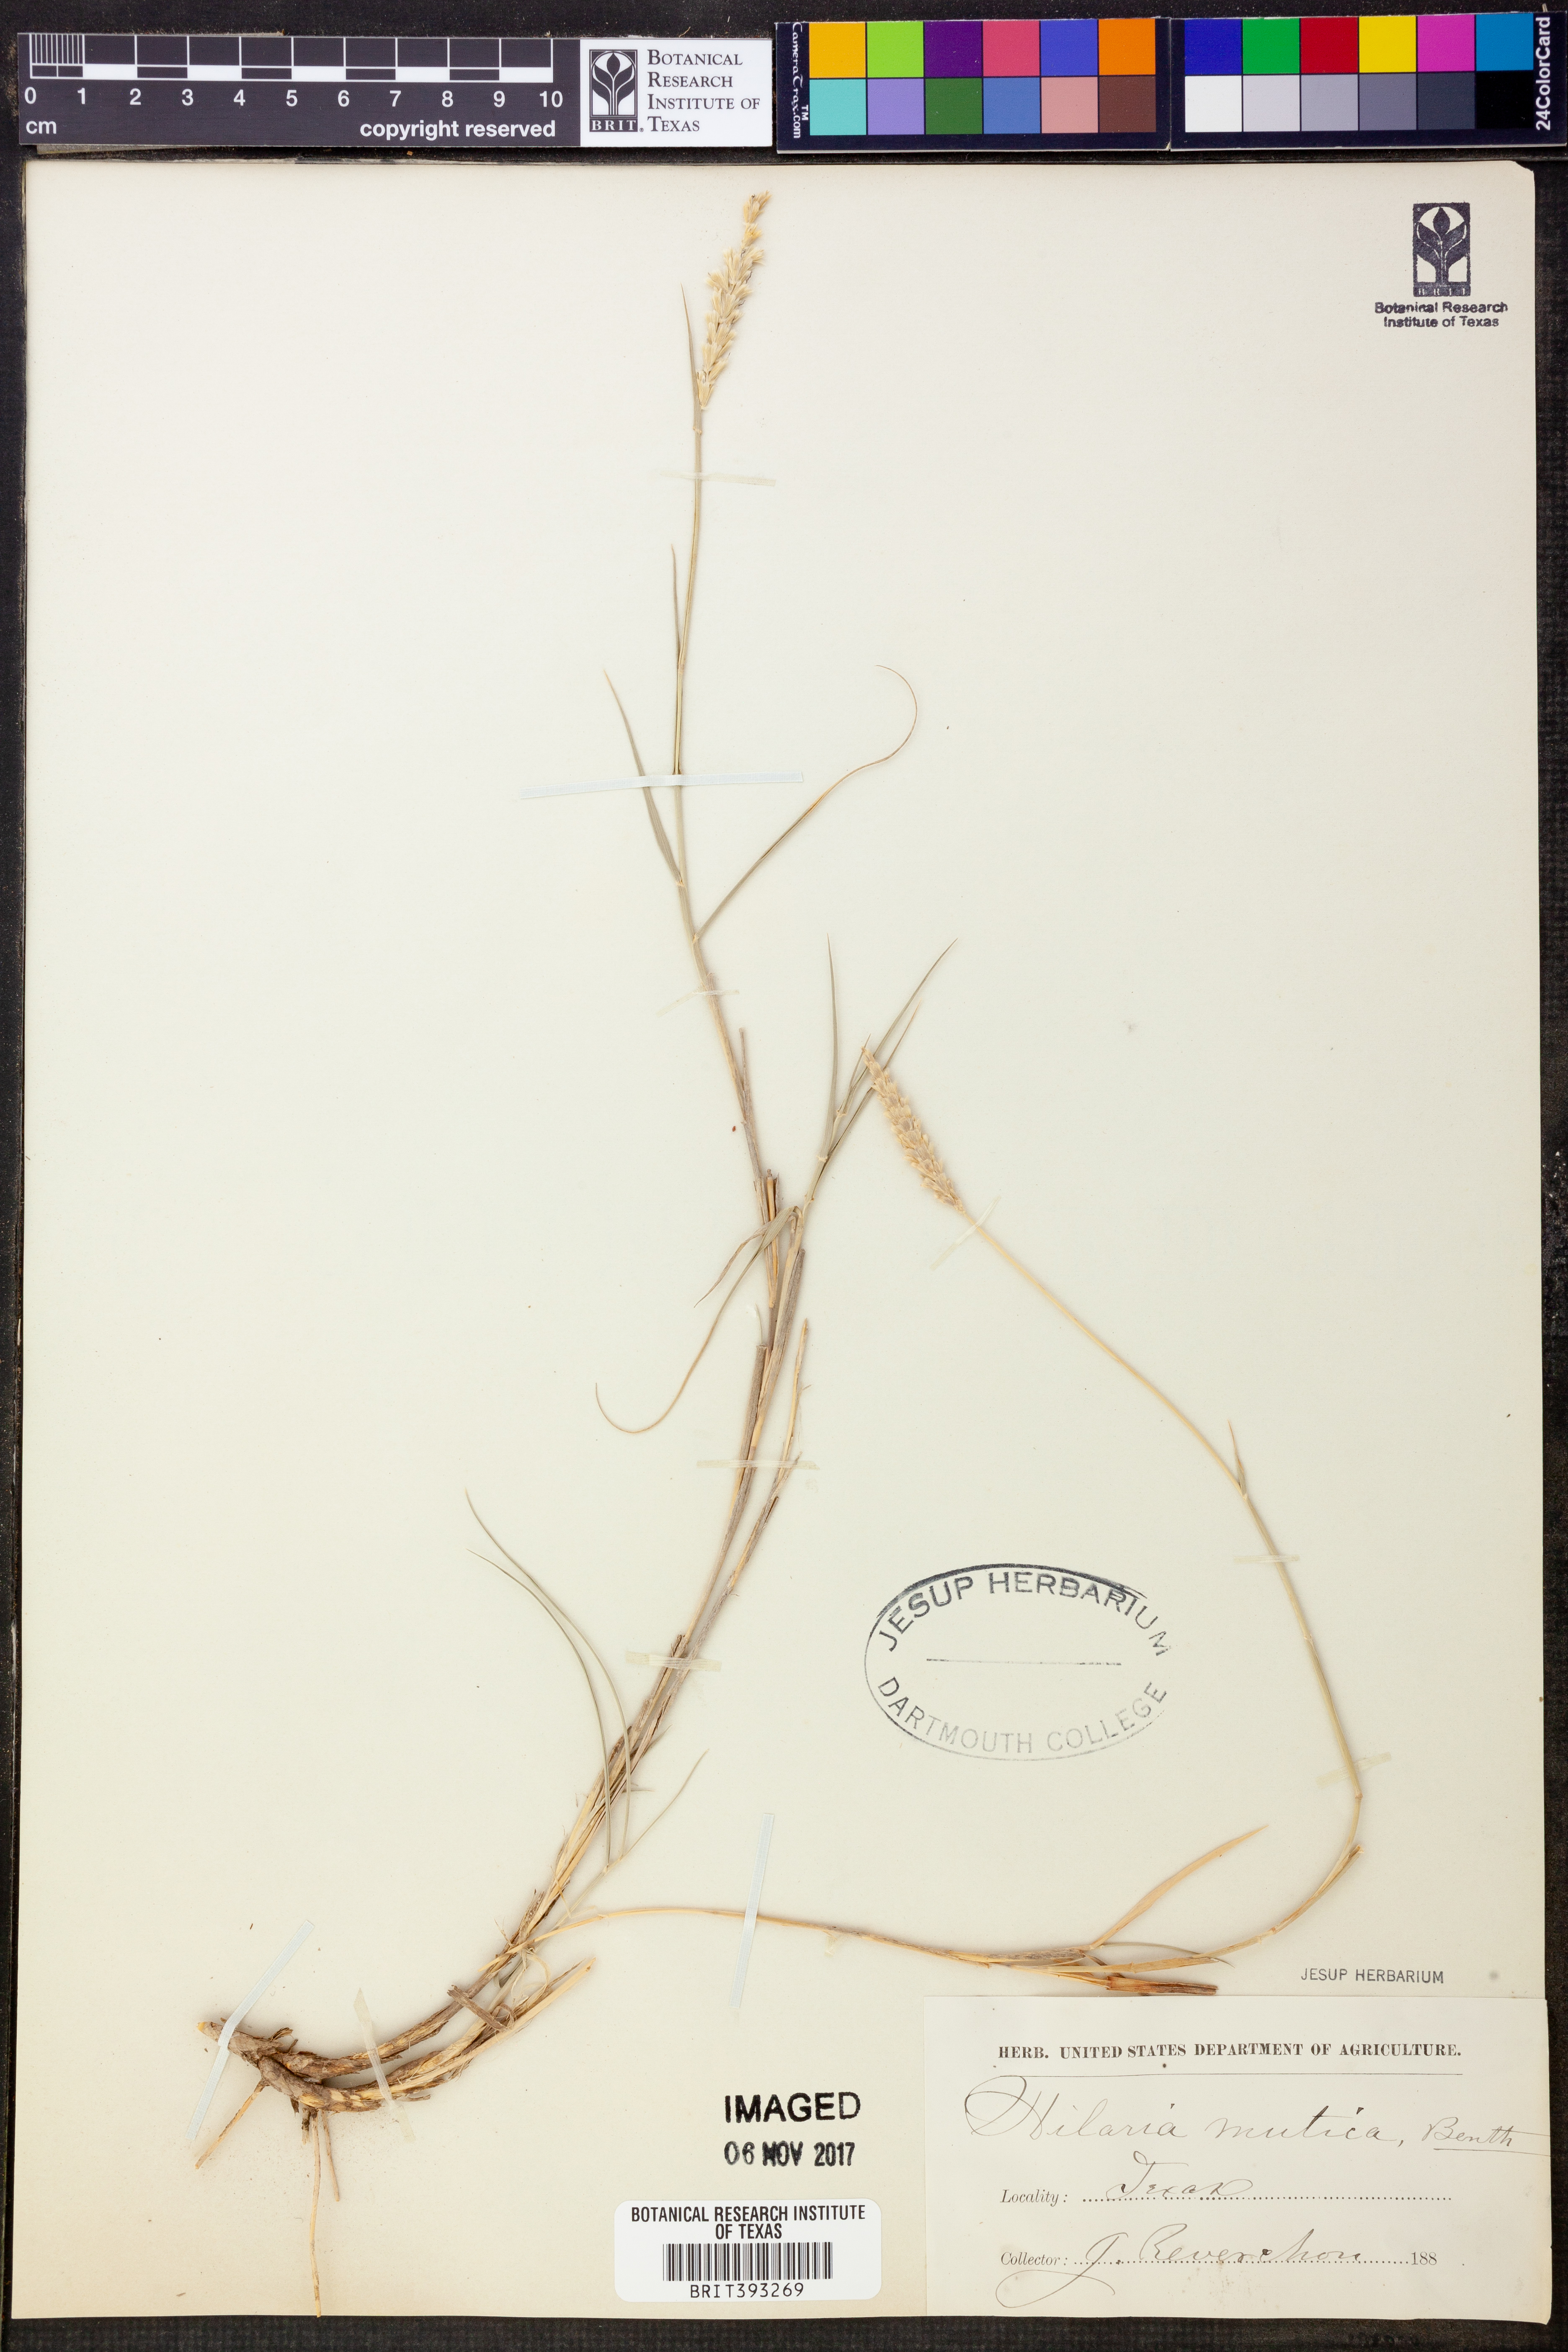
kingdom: Plantae
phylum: Tracheophyta
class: Liliopsida
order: Poales
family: Poaceae
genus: Hilaria
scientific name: Hilaria mutica
